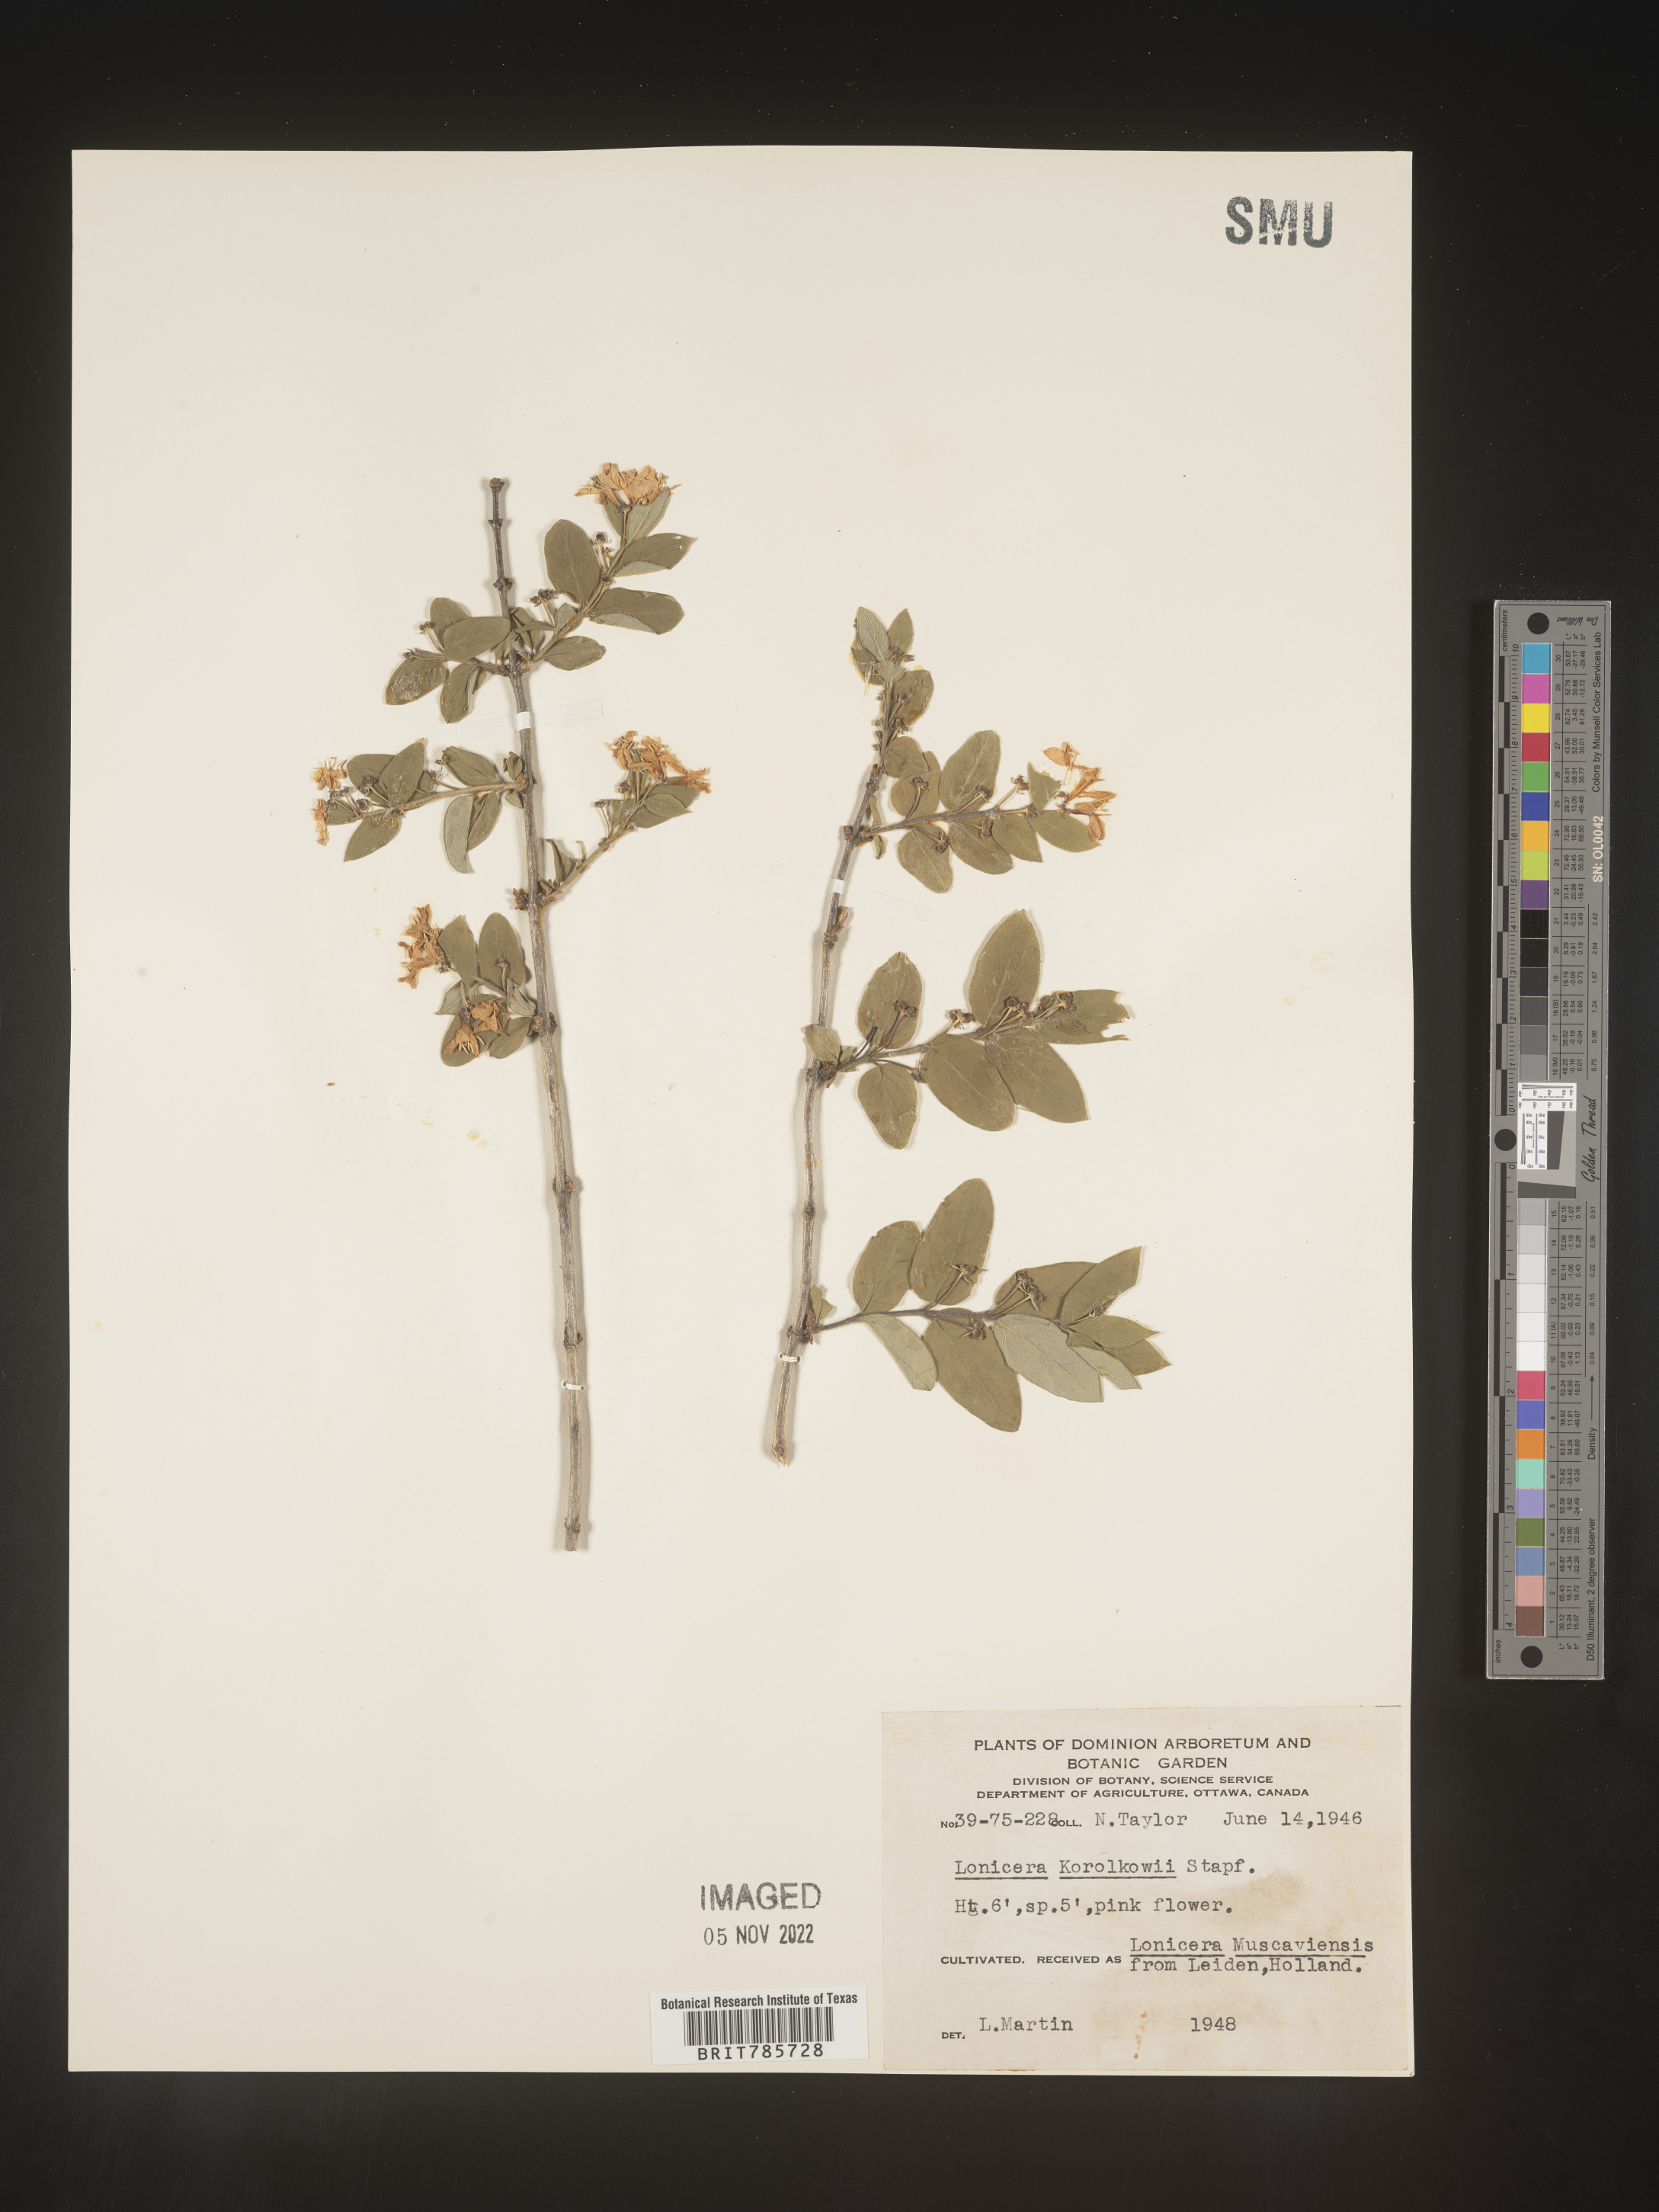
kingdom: Plantae
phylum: Tracheophyta
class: Magnoliopsida
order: Dipsacales
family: Caprifoliaceae
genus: Lonicera
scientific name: Lonicera
